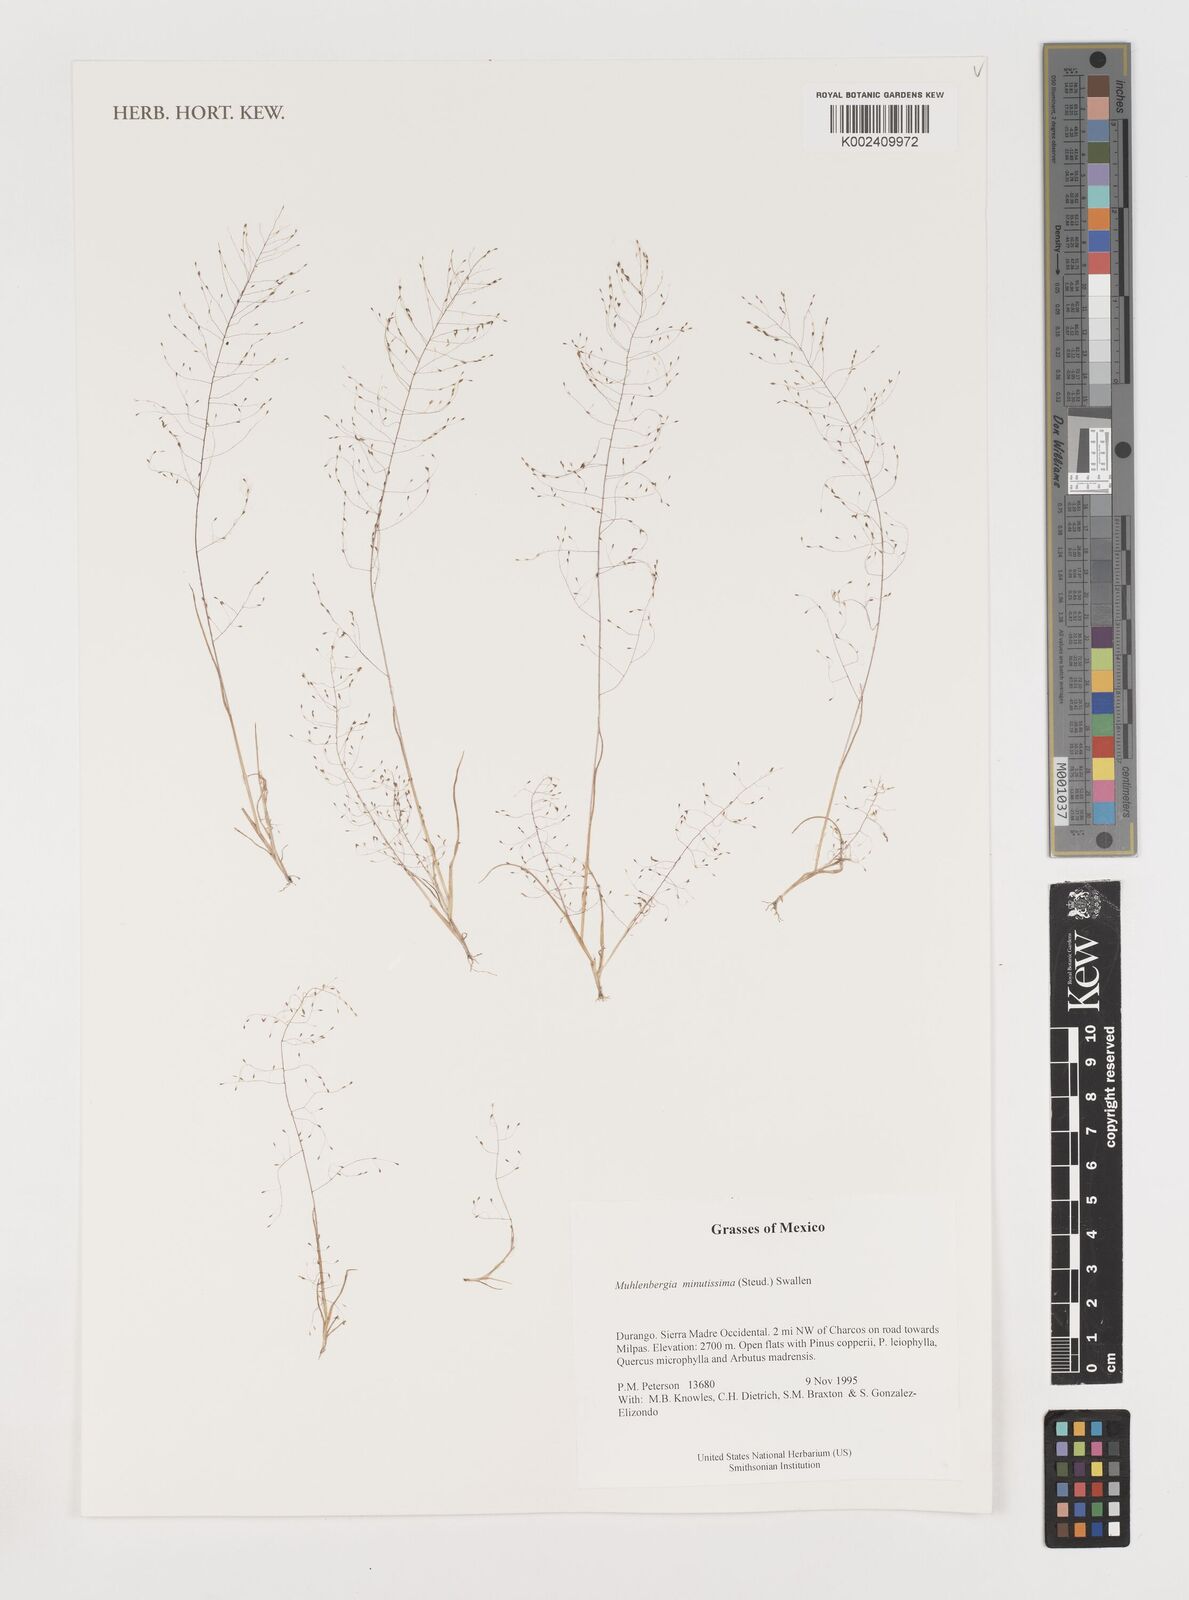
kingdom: Plantae
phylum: Tracheophyta
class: Liliopsida
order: Poales
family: Poaceae
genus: Muhlenbergia
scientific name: Muhlenbergia minutissima
